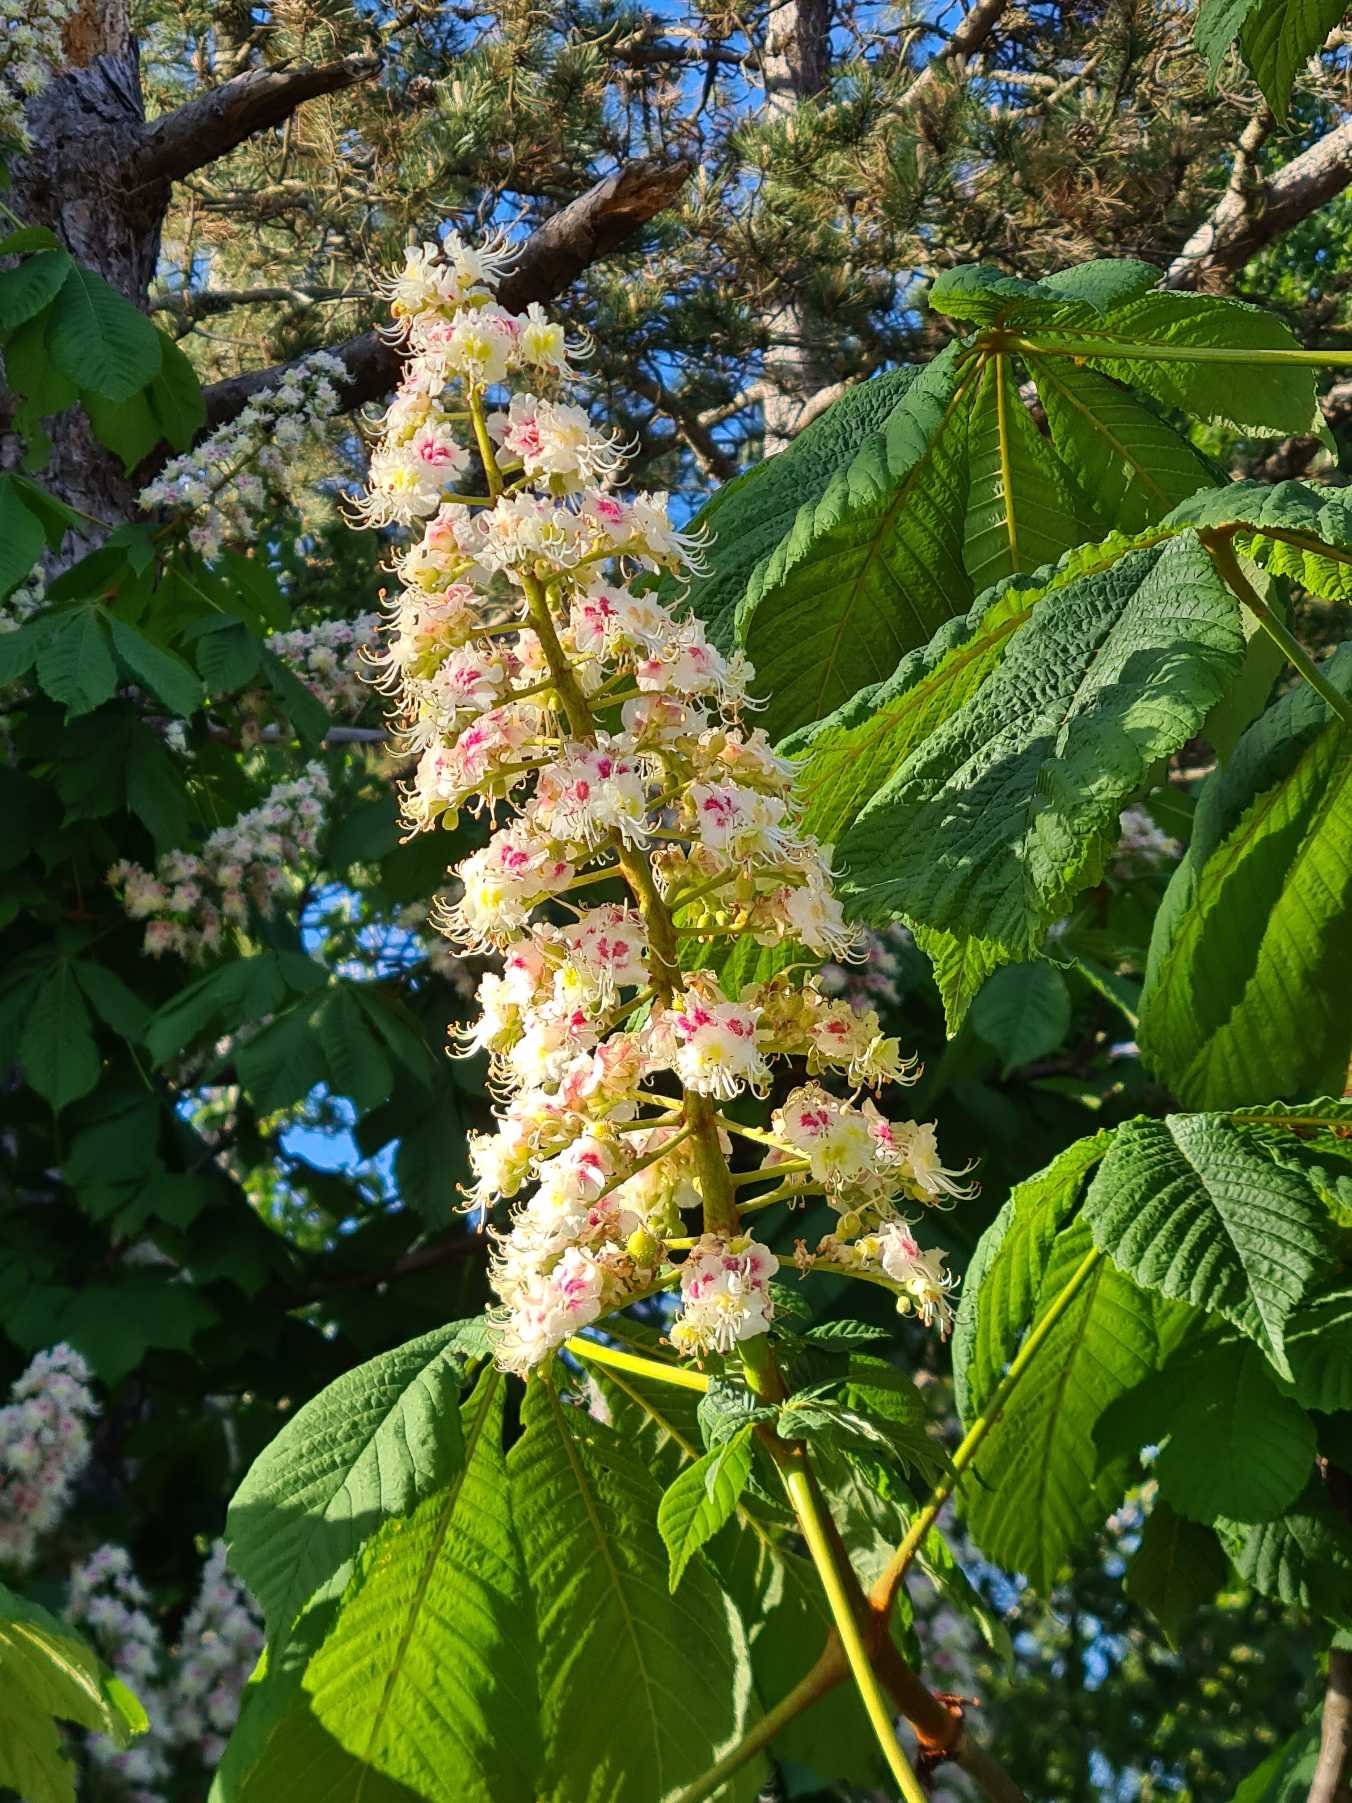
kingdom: Plantae
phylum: Tracheophyta
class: Magnoliopsida
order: Sapindales
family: Sapindaceae
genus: Aesculus
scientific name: Aesculus hippocastanum
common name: Hestekastanie
